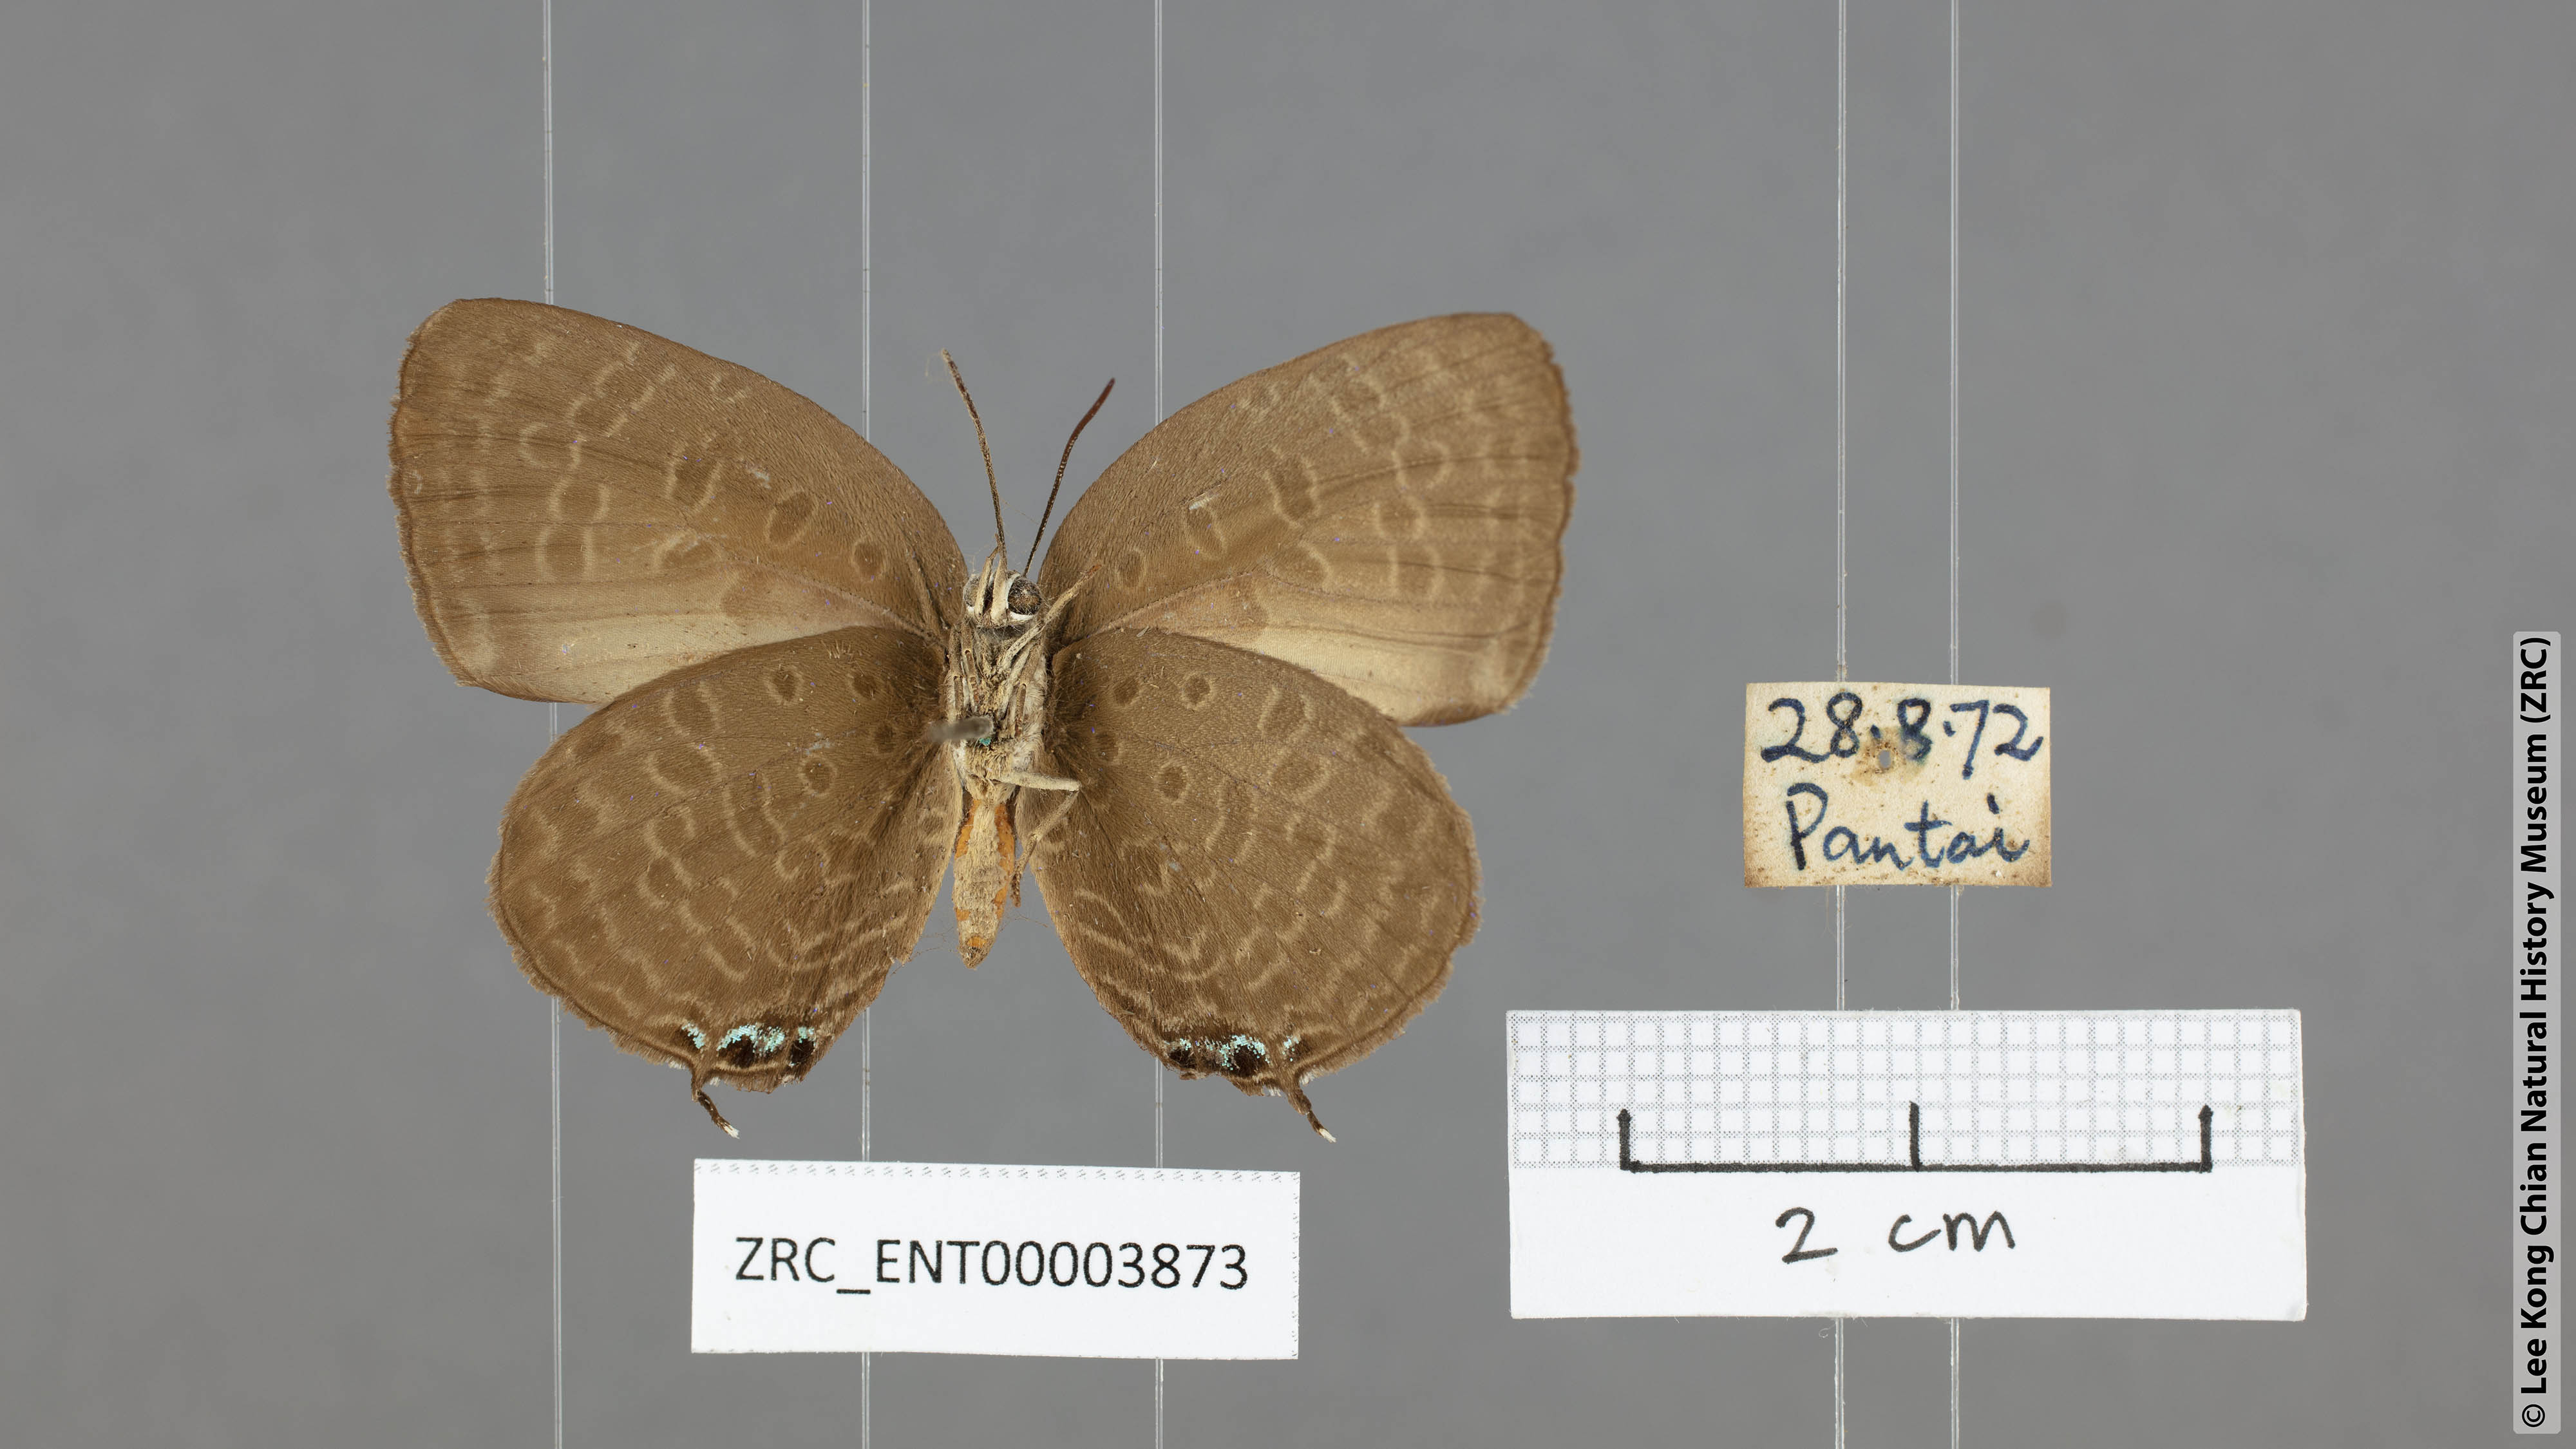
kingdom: Animalia
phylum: Arthropoda
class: Insecta
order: Lepidoptera
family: Lycaenidae
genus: Arhopala
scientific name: Arhopala atosia
